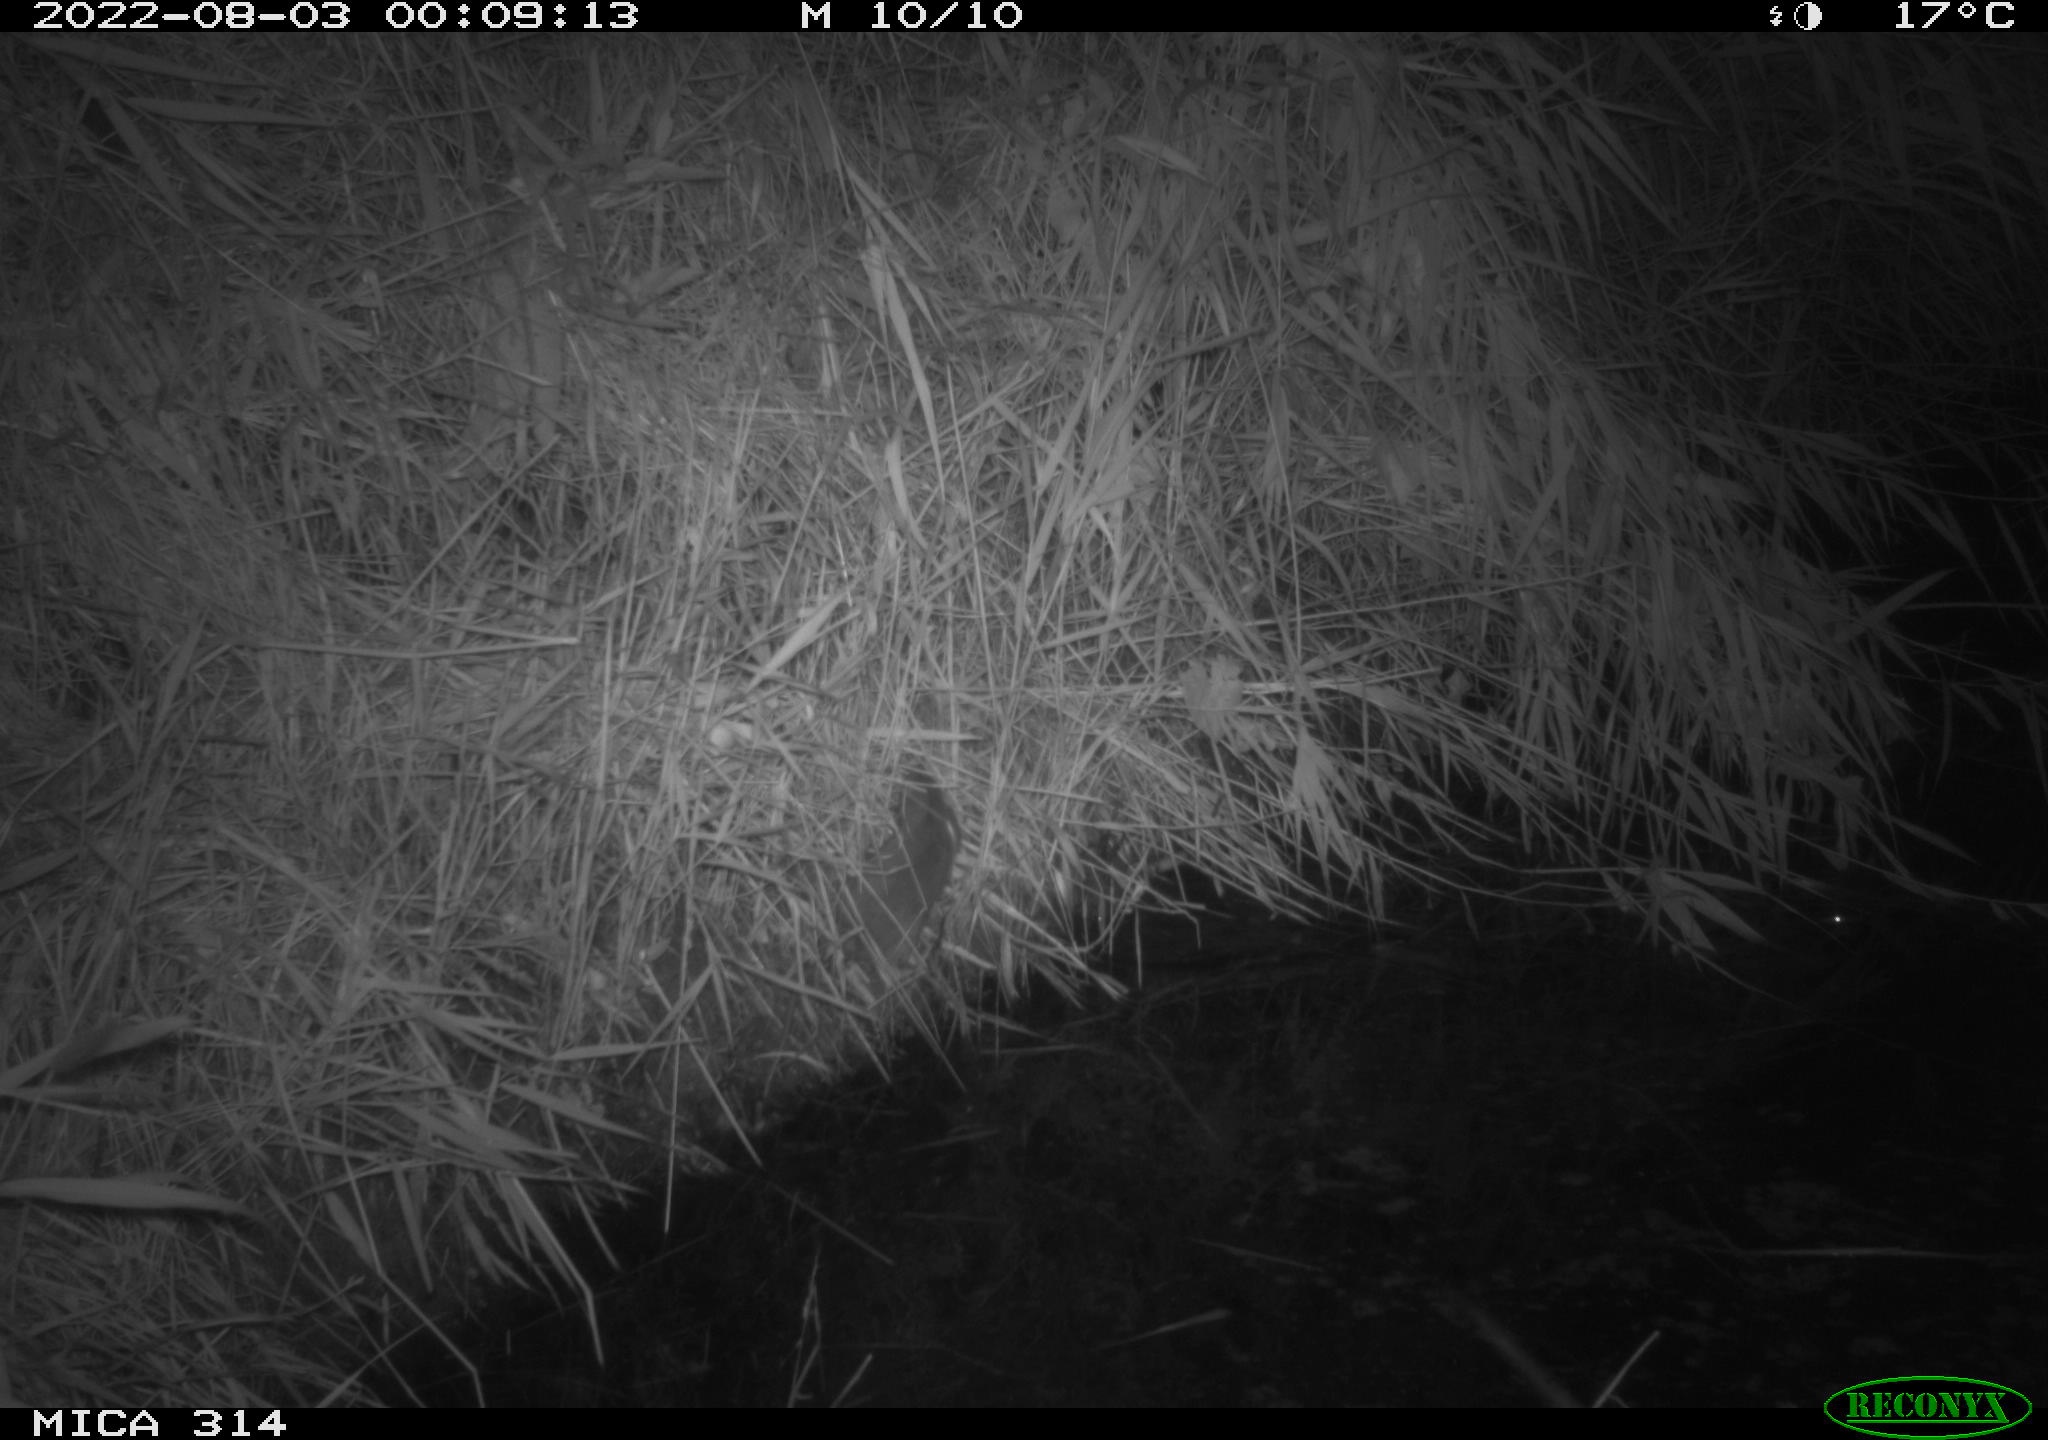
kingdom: Animalia
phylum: Chordata
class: Mammalia
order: Rodentia
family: Muridae
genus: Rattus
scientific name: Rattus norvegicus
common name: Brown rat
